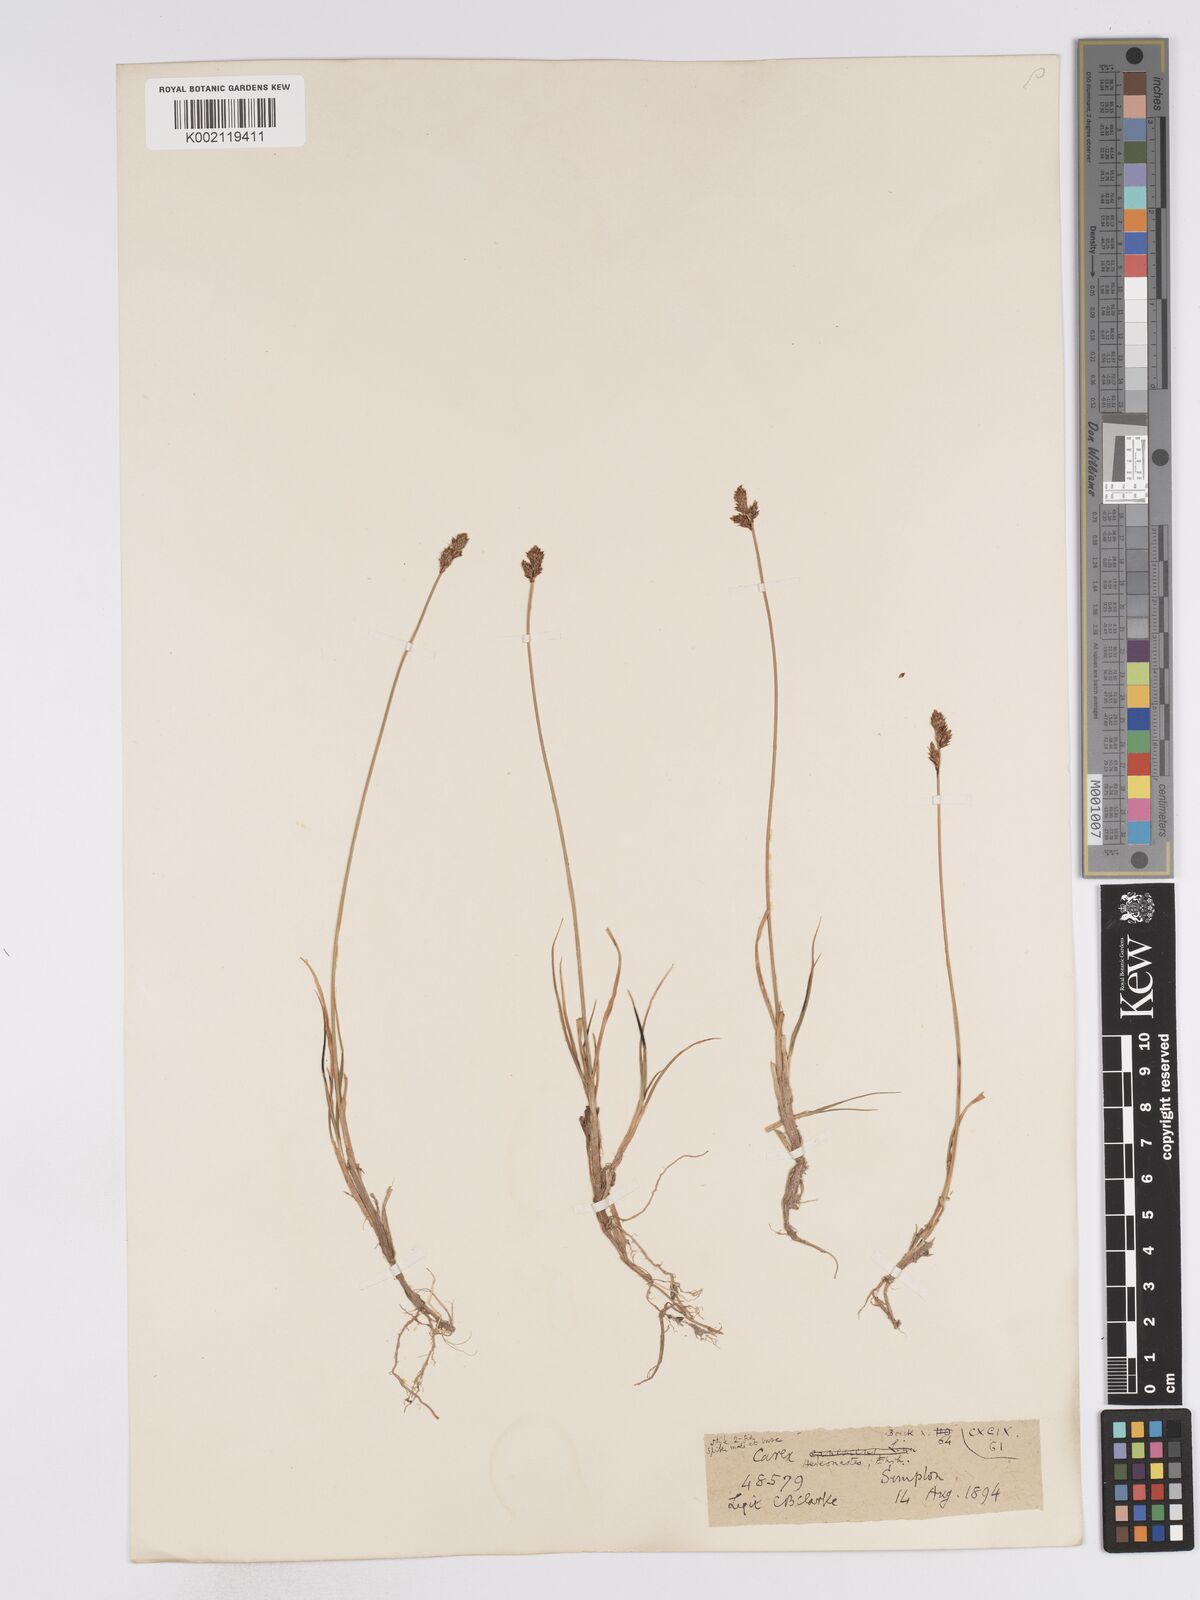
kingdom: Plantae
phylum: Tracheophyta
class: Liliopsida
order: Poales
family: Cyperaceae
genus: Carex
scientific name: Carex heleonastes
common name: Hudson bay sedge
